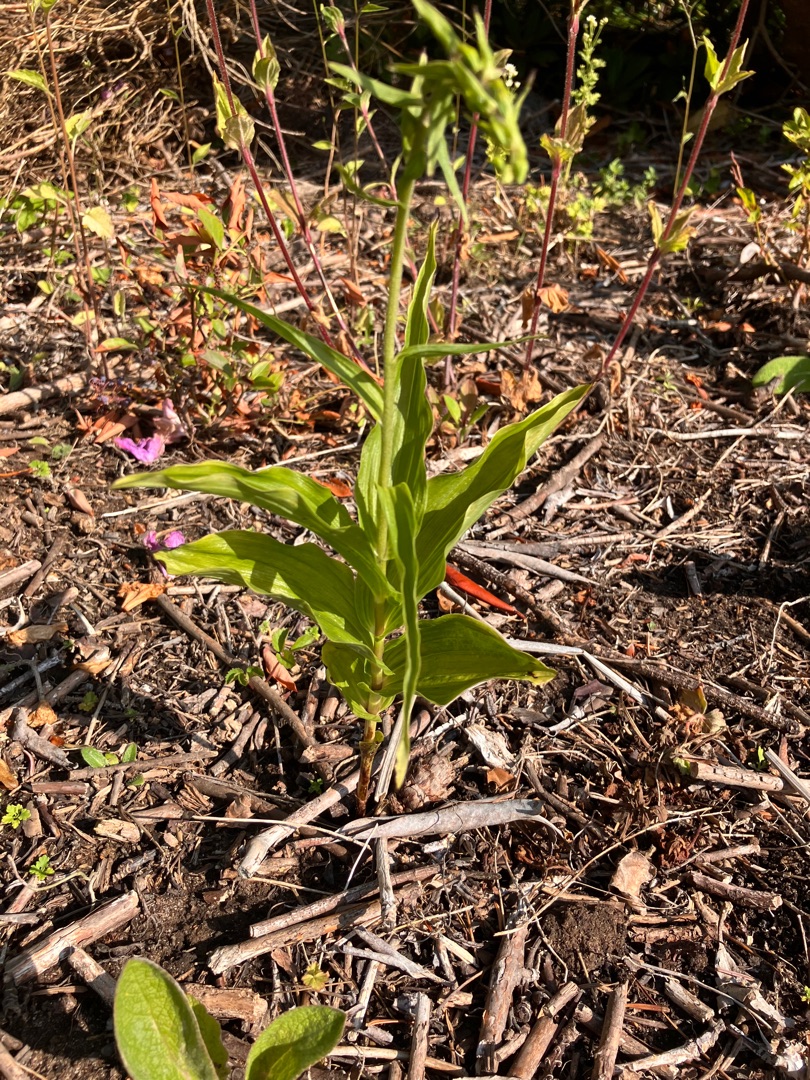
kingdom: Plantae
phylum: Tracheophyta
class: Liliopsida
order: Asparagales
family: Orchidaceae
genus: Epipactis
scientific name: Epipactis helleborine
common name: Skov-hullæbe
